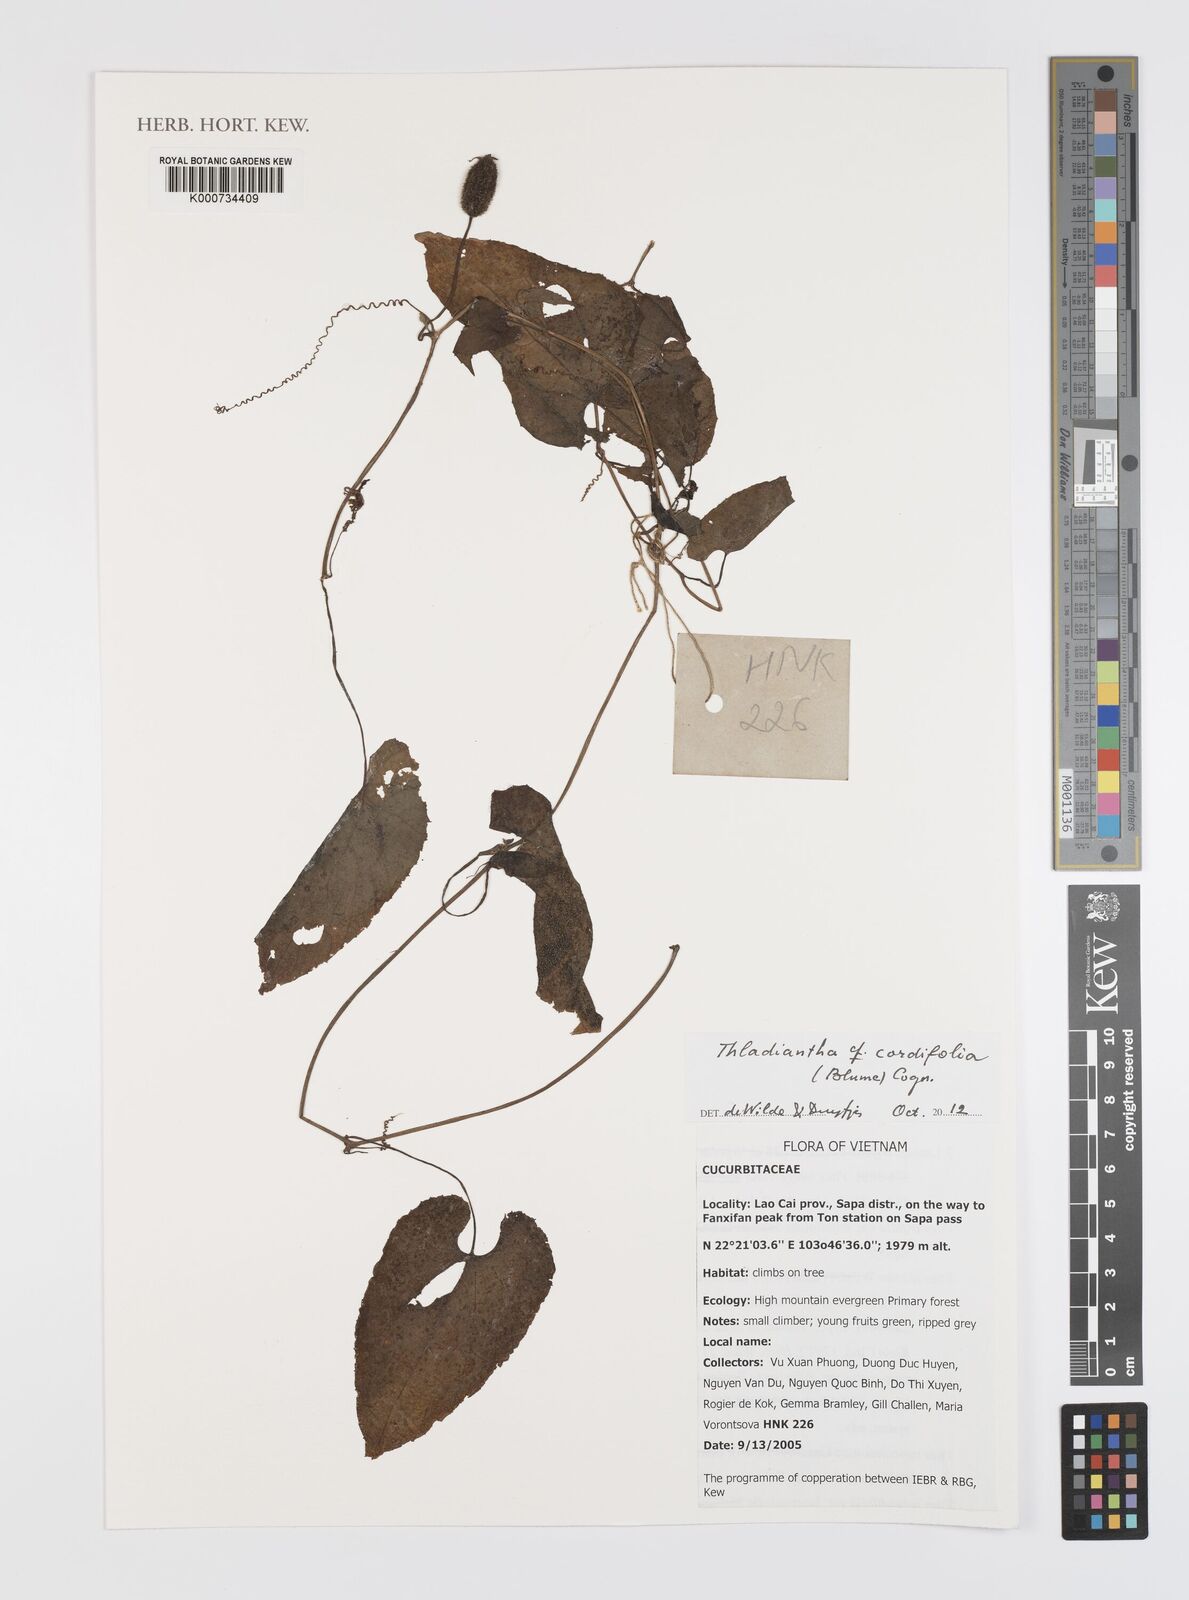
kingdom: Plantae
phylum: Tracheophyta
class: Magnoliopsida
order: Cucurbitales
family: Cucurbitaceae
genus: Thladiantha
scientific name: Thladiantha cordifolia
